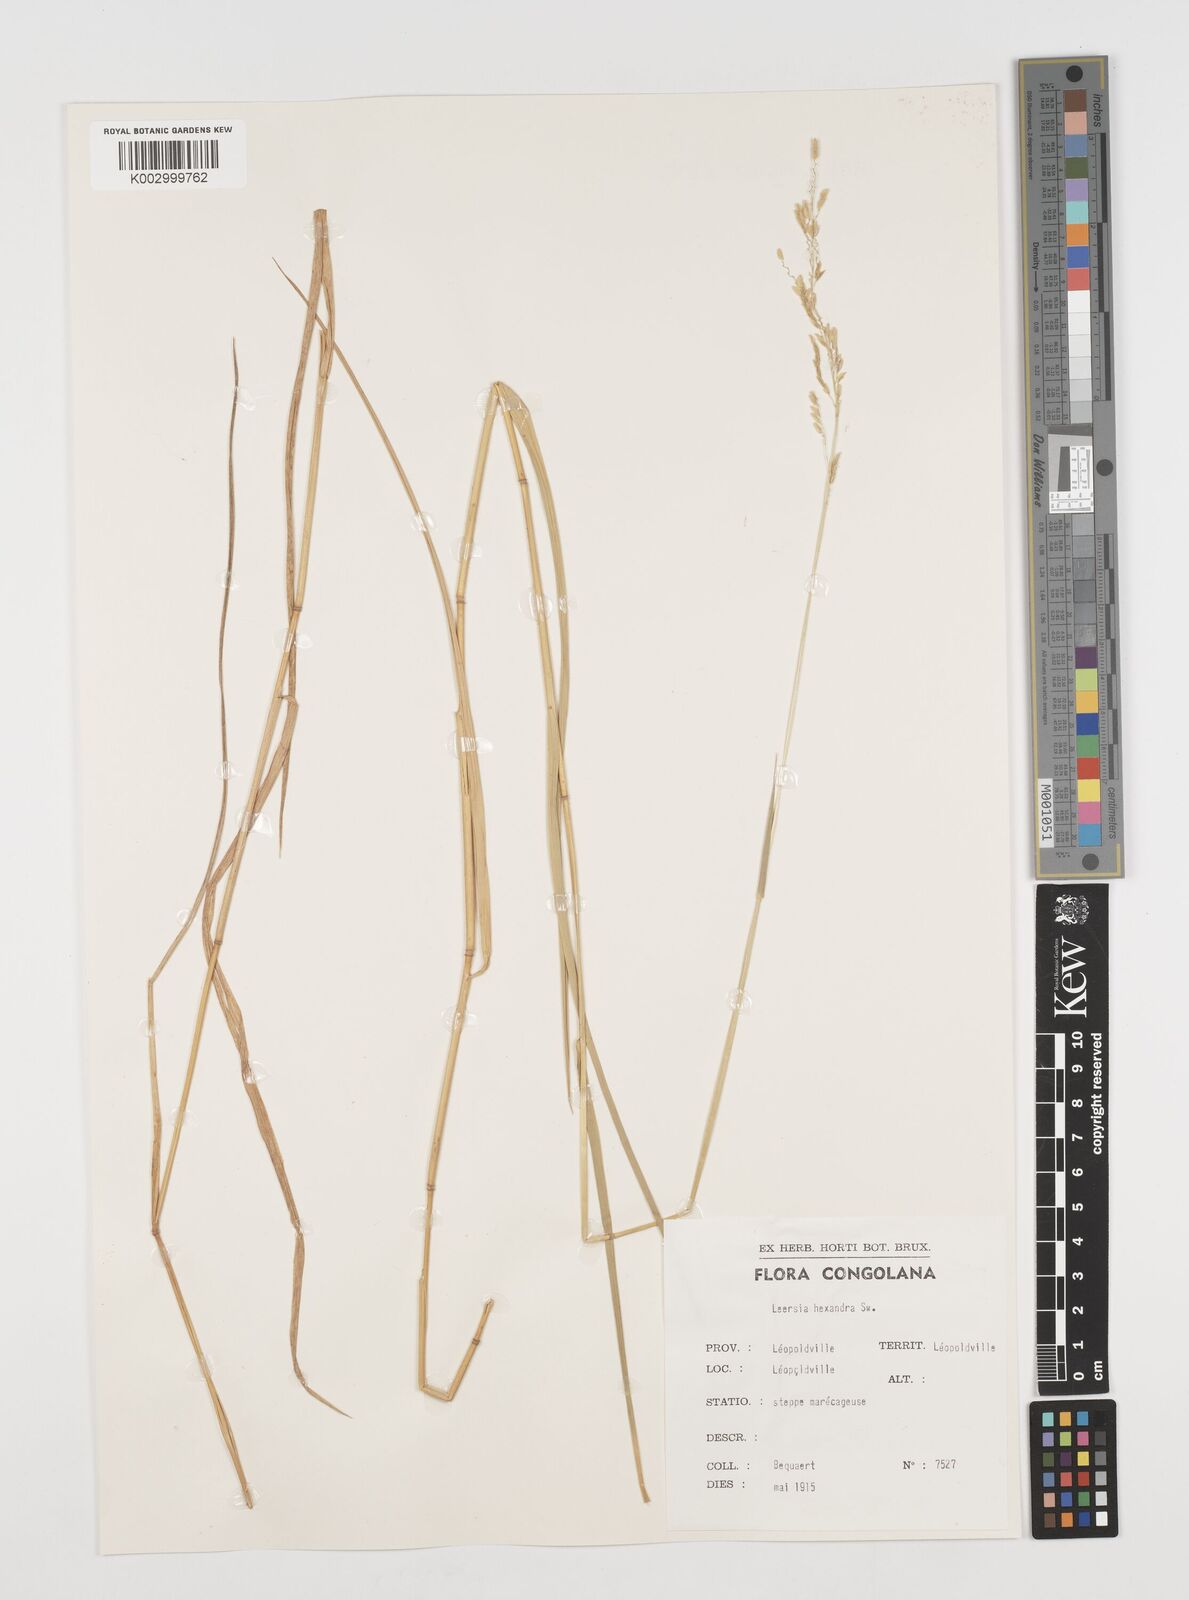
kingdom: Plantae
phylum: Tracheophyta
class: Liliopsida
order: Poales
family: Poaceae
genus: Leersia
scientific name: Leersia hexandra
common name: Southern cut grass
